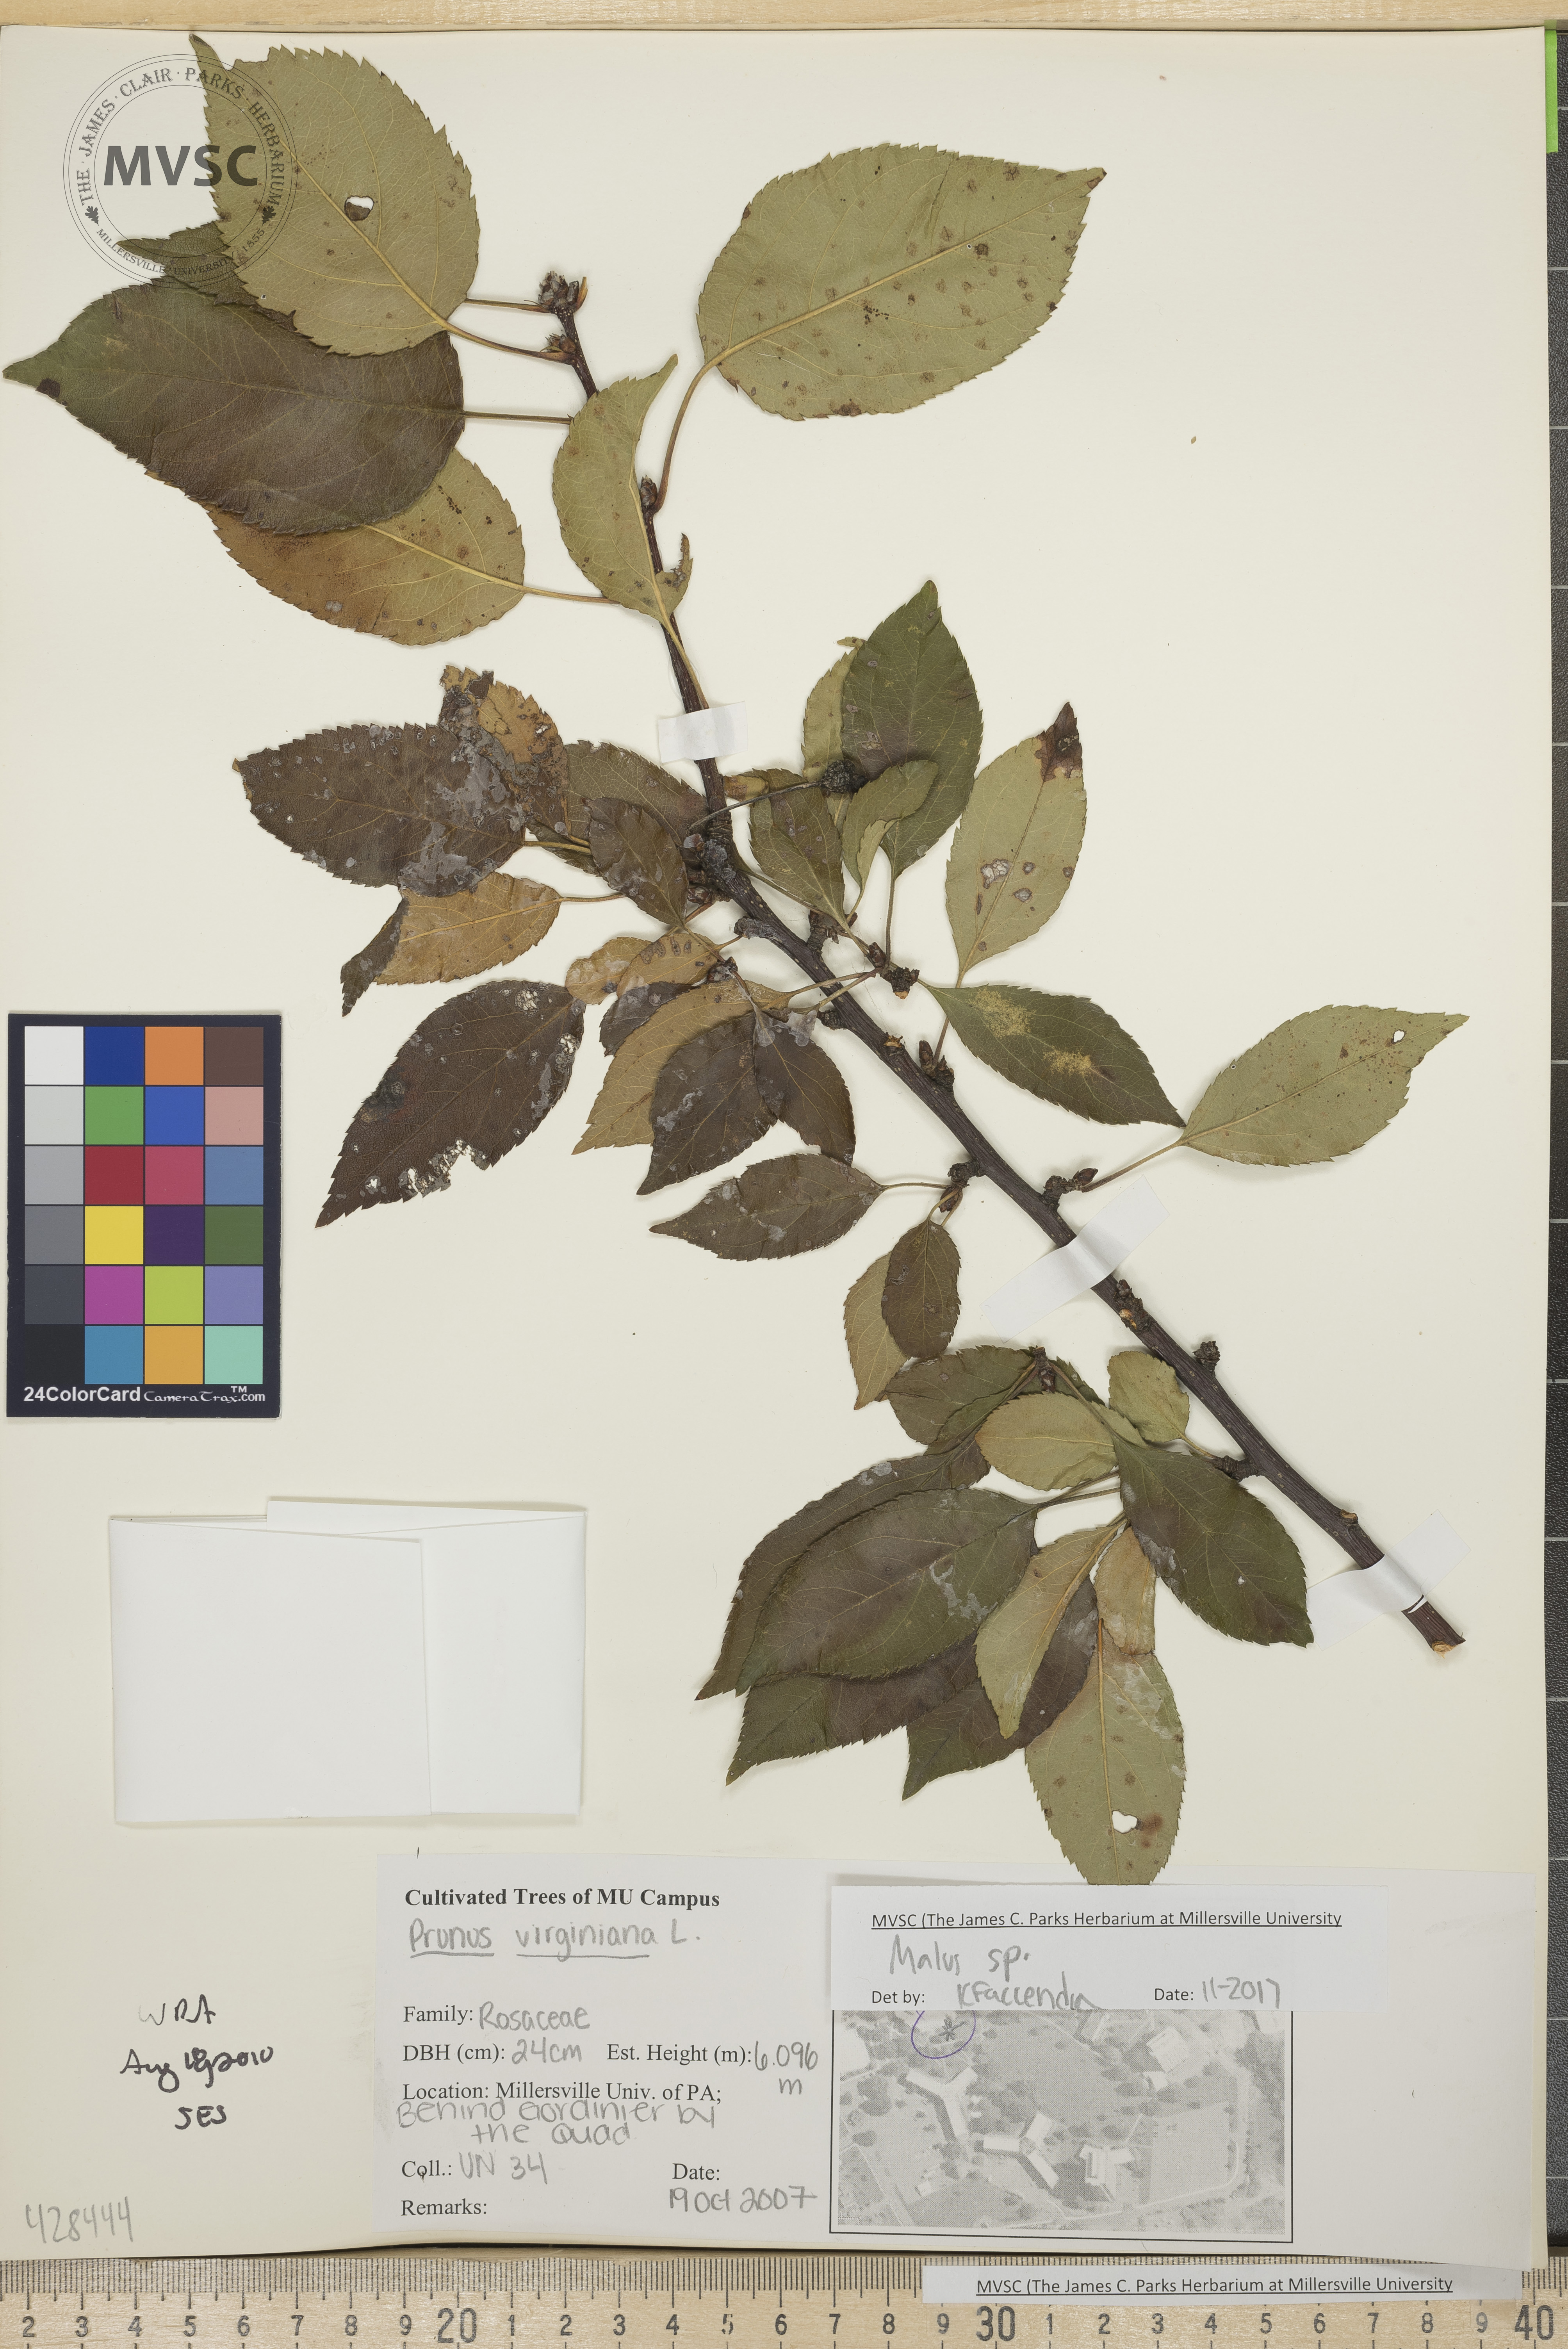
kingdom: Plantae
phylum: Tracheophyta
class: Magnoliopsida
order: Rosales
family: Rosaceae
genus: Malus
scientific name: Malus
